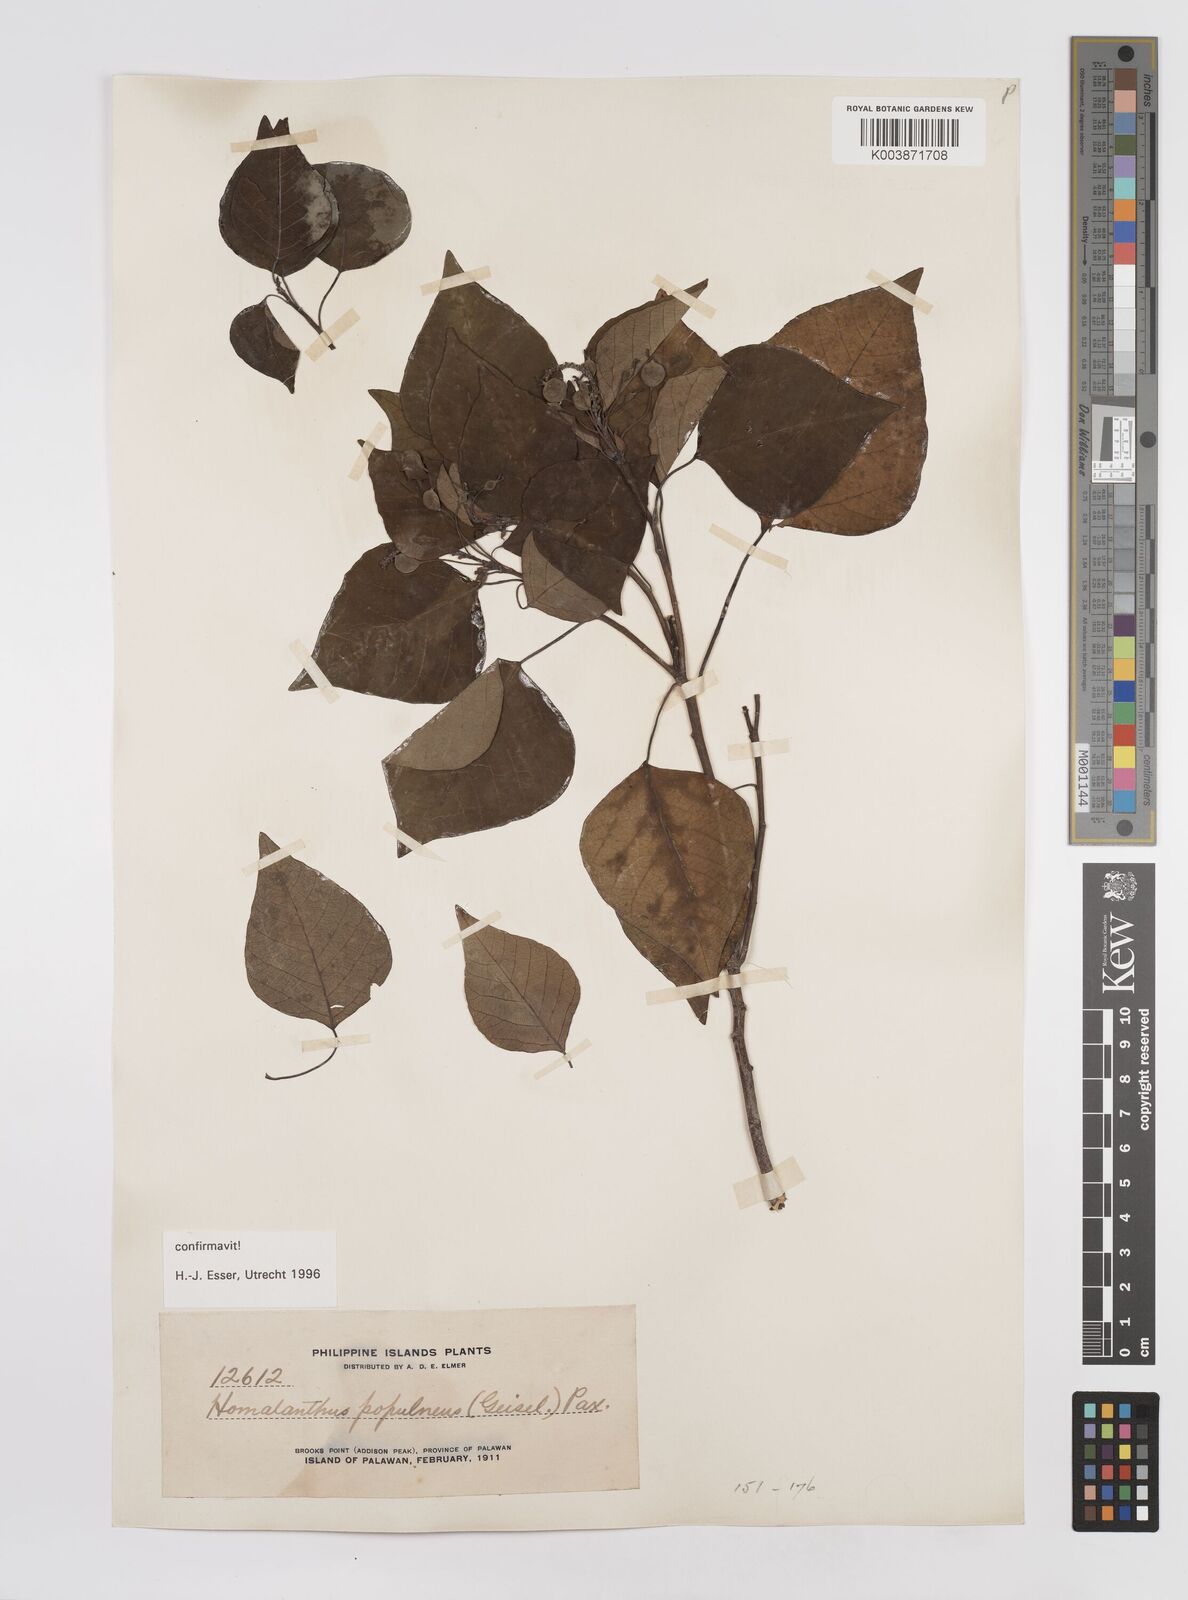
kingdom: Plantae
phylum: Tracheophyta
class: Magnoliopsida
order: Malpighiales
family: Euphorbiaceae
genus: Homalanthus
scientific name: Homalanthus populneus
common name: Spurge
